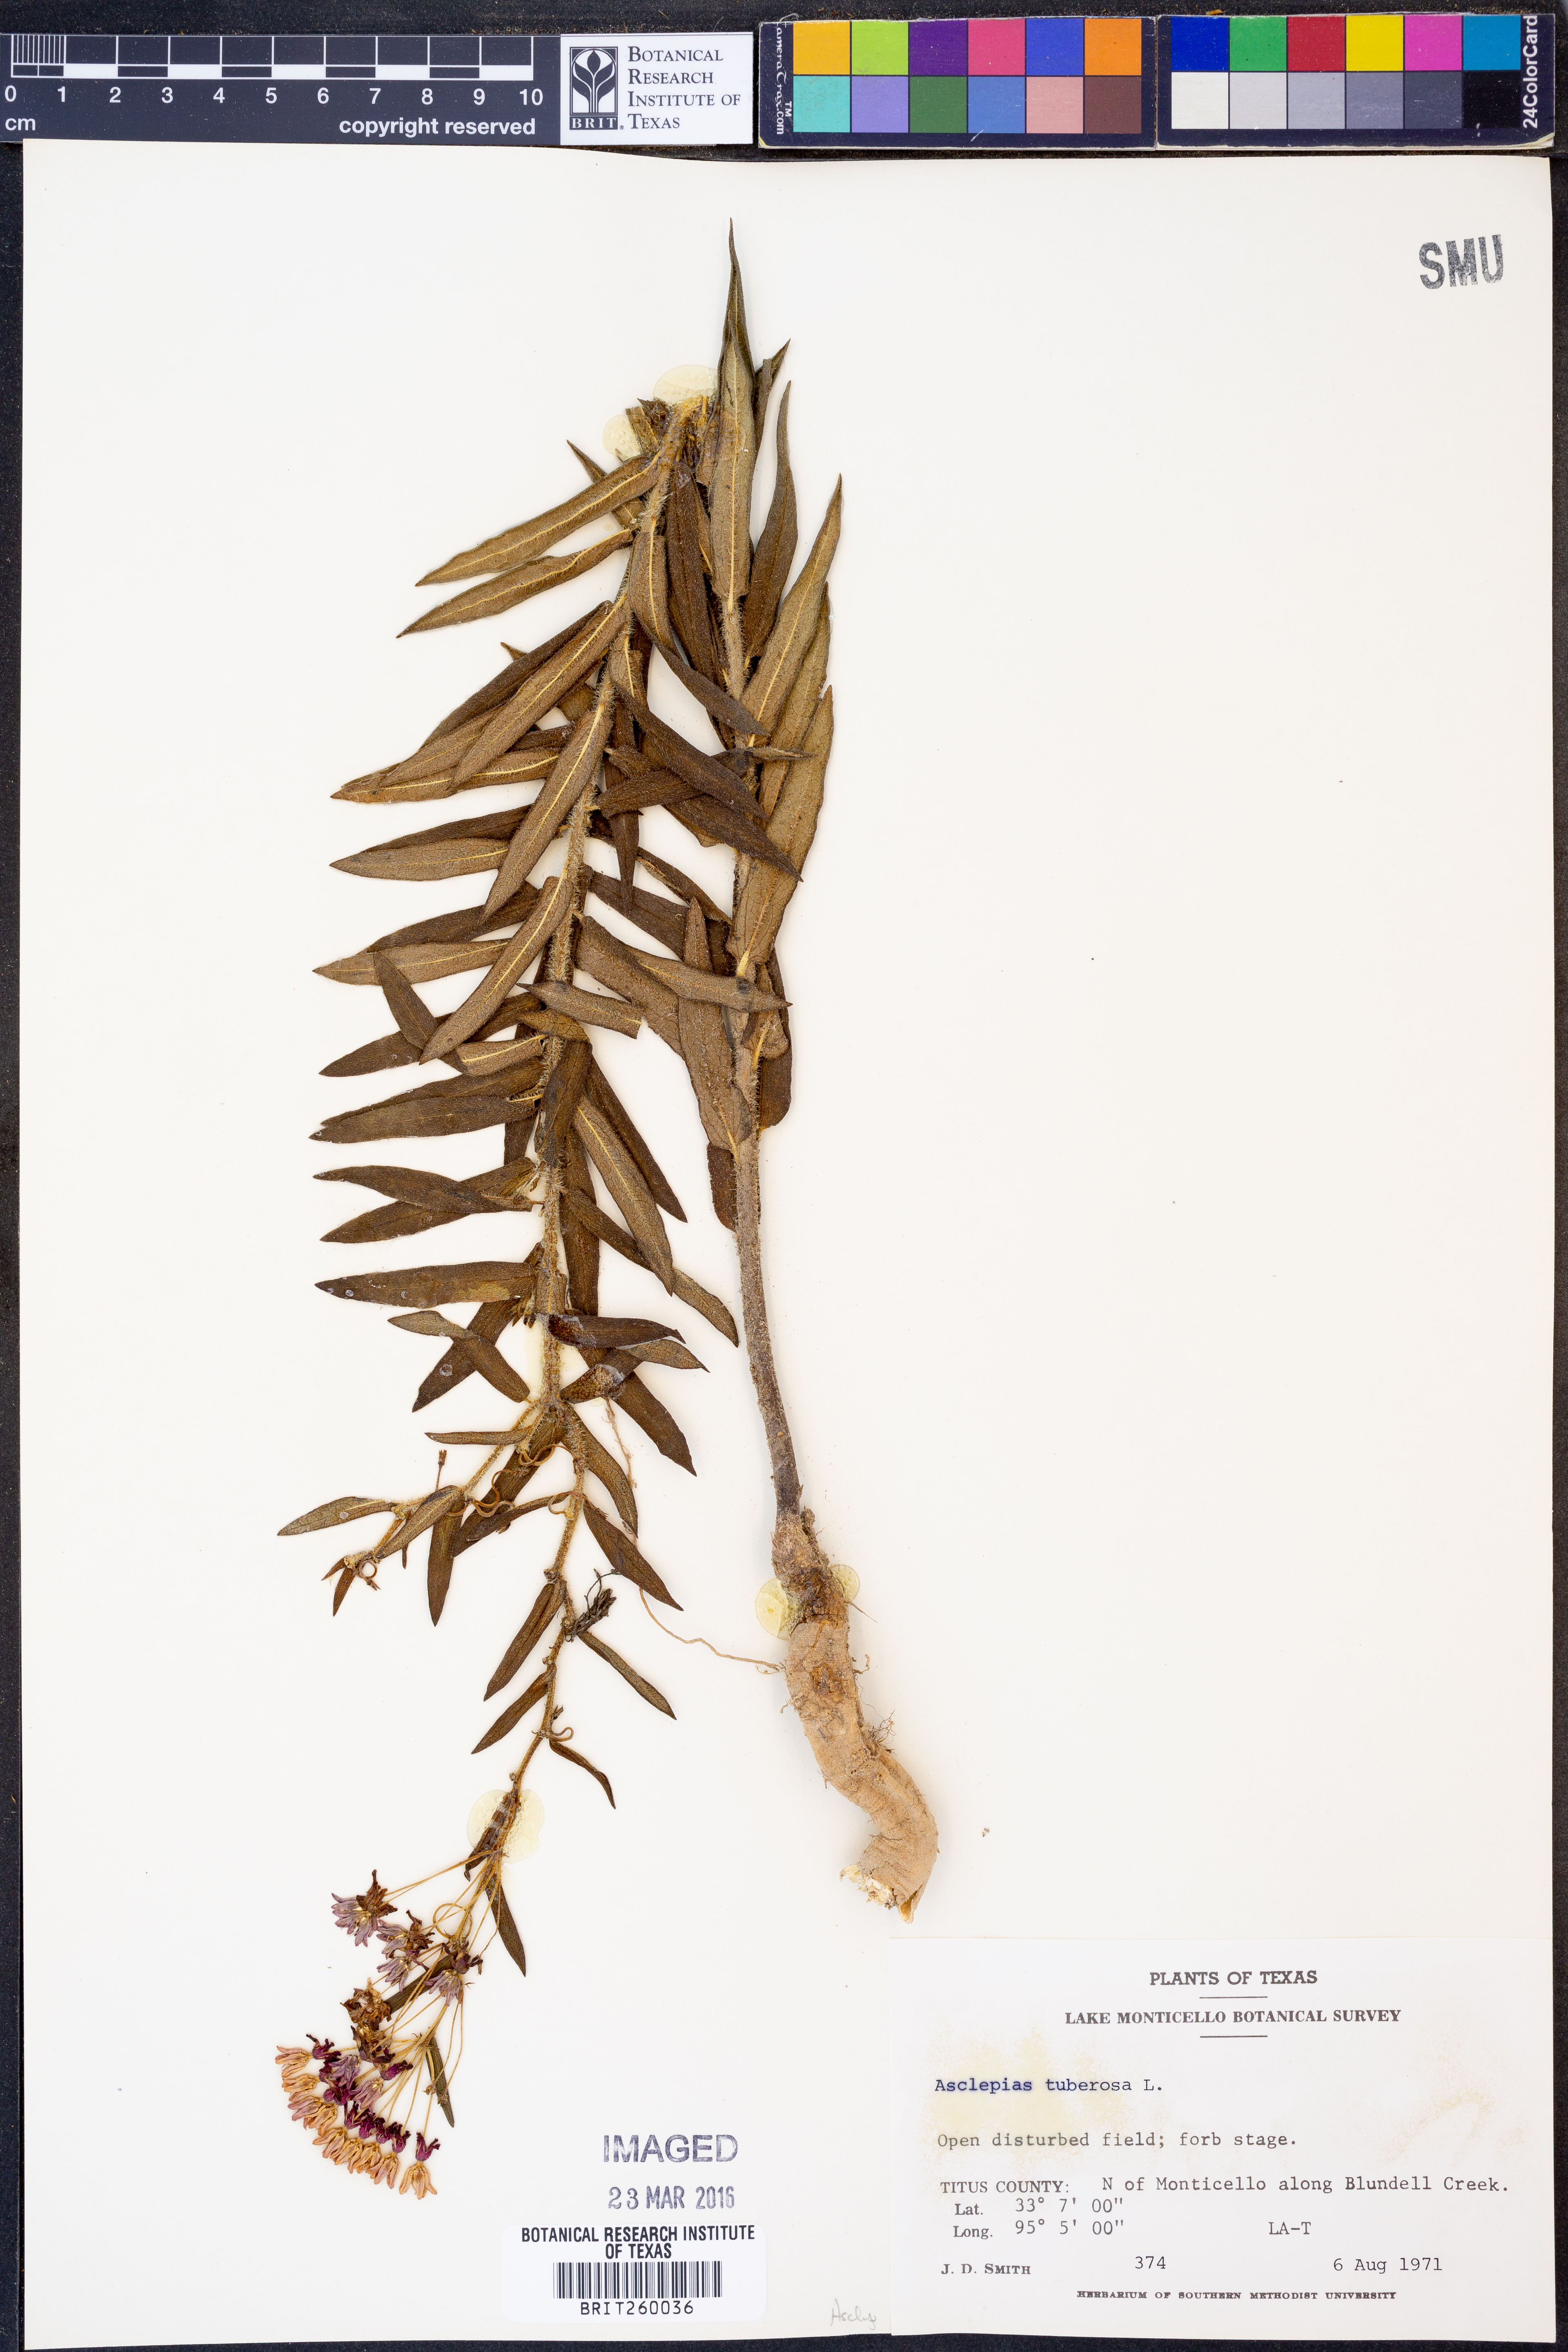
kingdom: Plantae
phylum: Tracheophyta
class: Magnoliopsida
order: Gentianales
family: Apocynaceae
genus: Asclepias
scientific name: Asclepias tuberosa
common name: Butterfly milkweed
